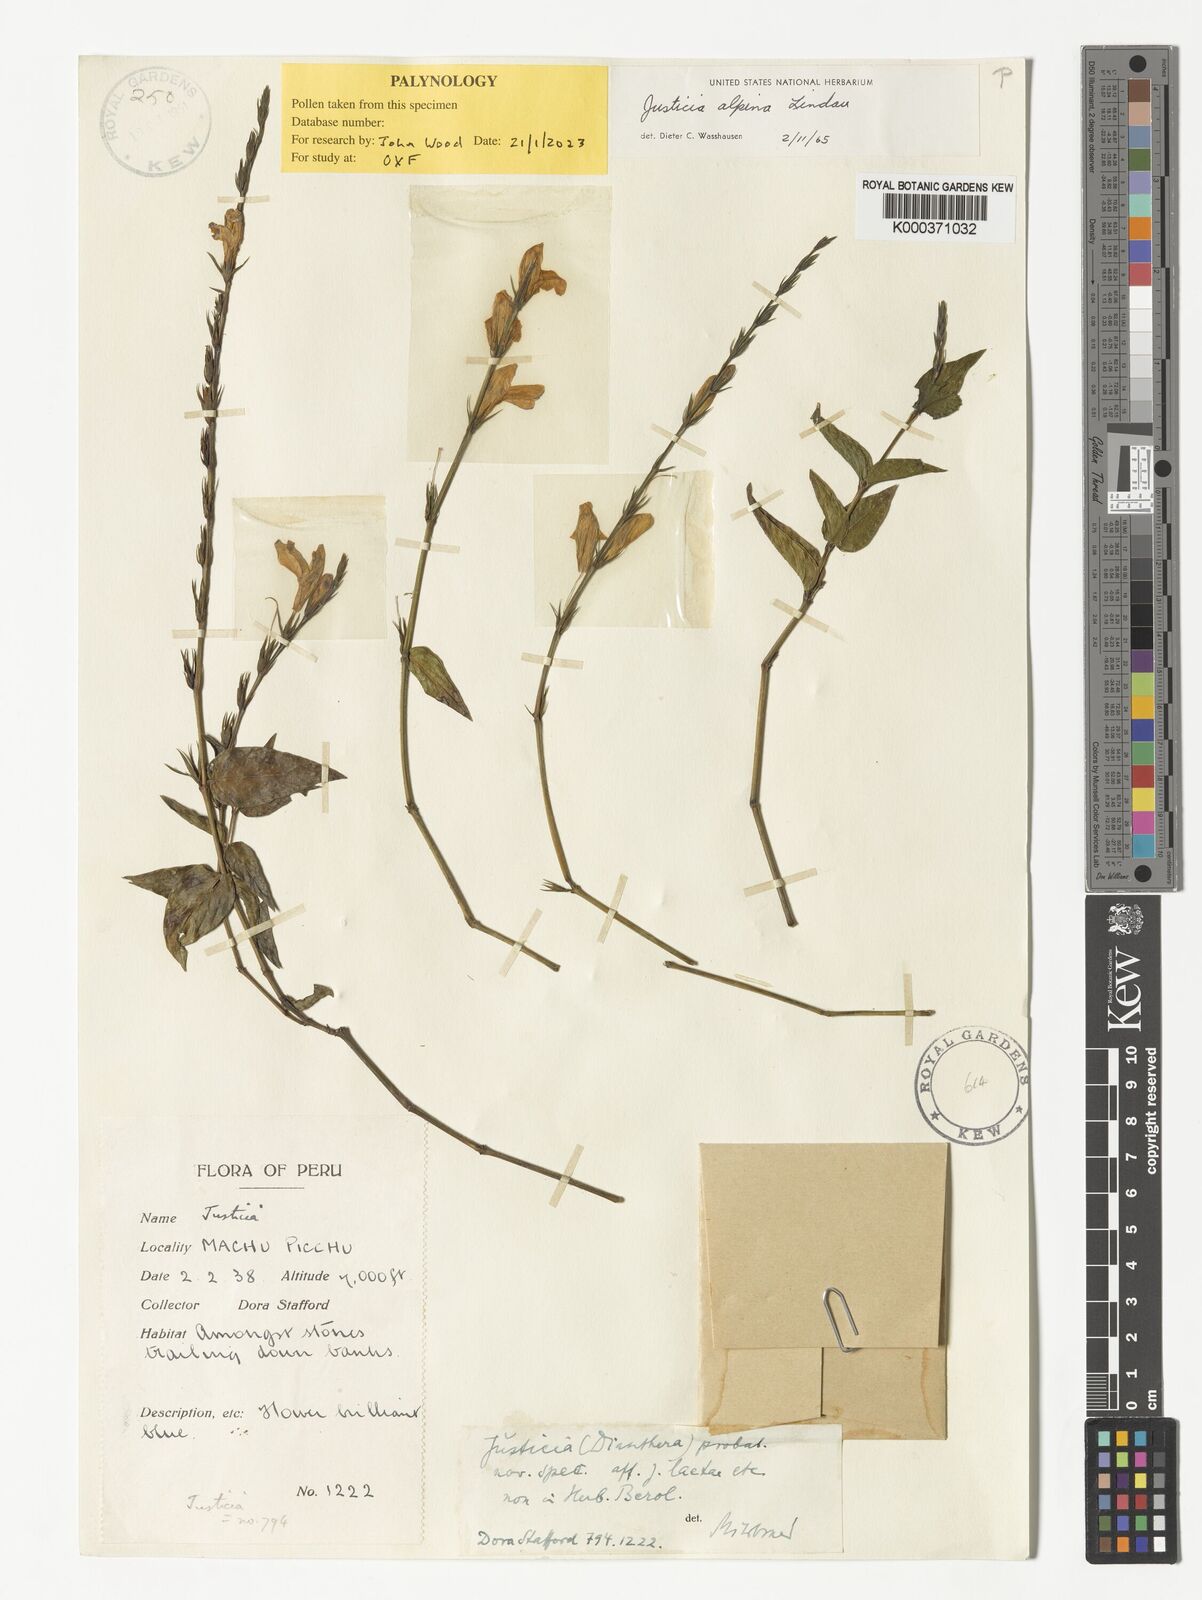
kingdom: Plantae
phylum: Tracheophyta
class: Magnoliopsida
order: Lamiales
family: Acanthaceae
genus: Justicia
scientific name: Justicia alpina
